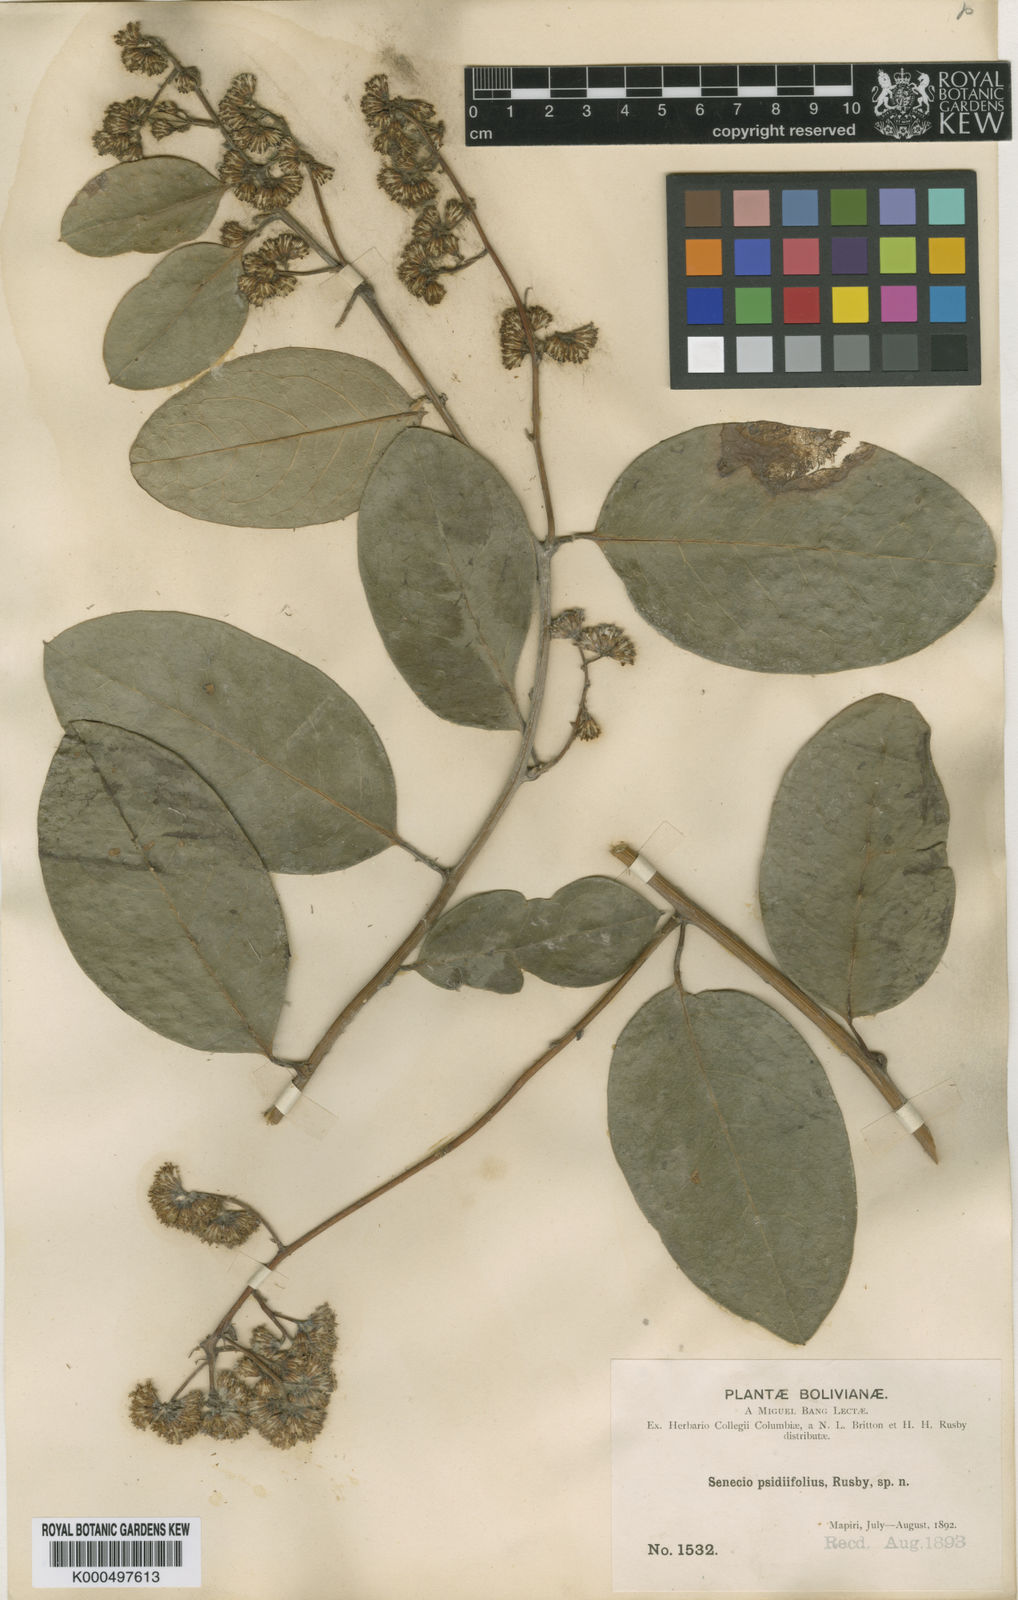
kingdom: Plantae
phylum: Tracheophyta
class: Magnoliopsida
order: Asterales
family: Asteraceae
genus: Pentacalia
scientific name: Pentacalia psidiifolia
